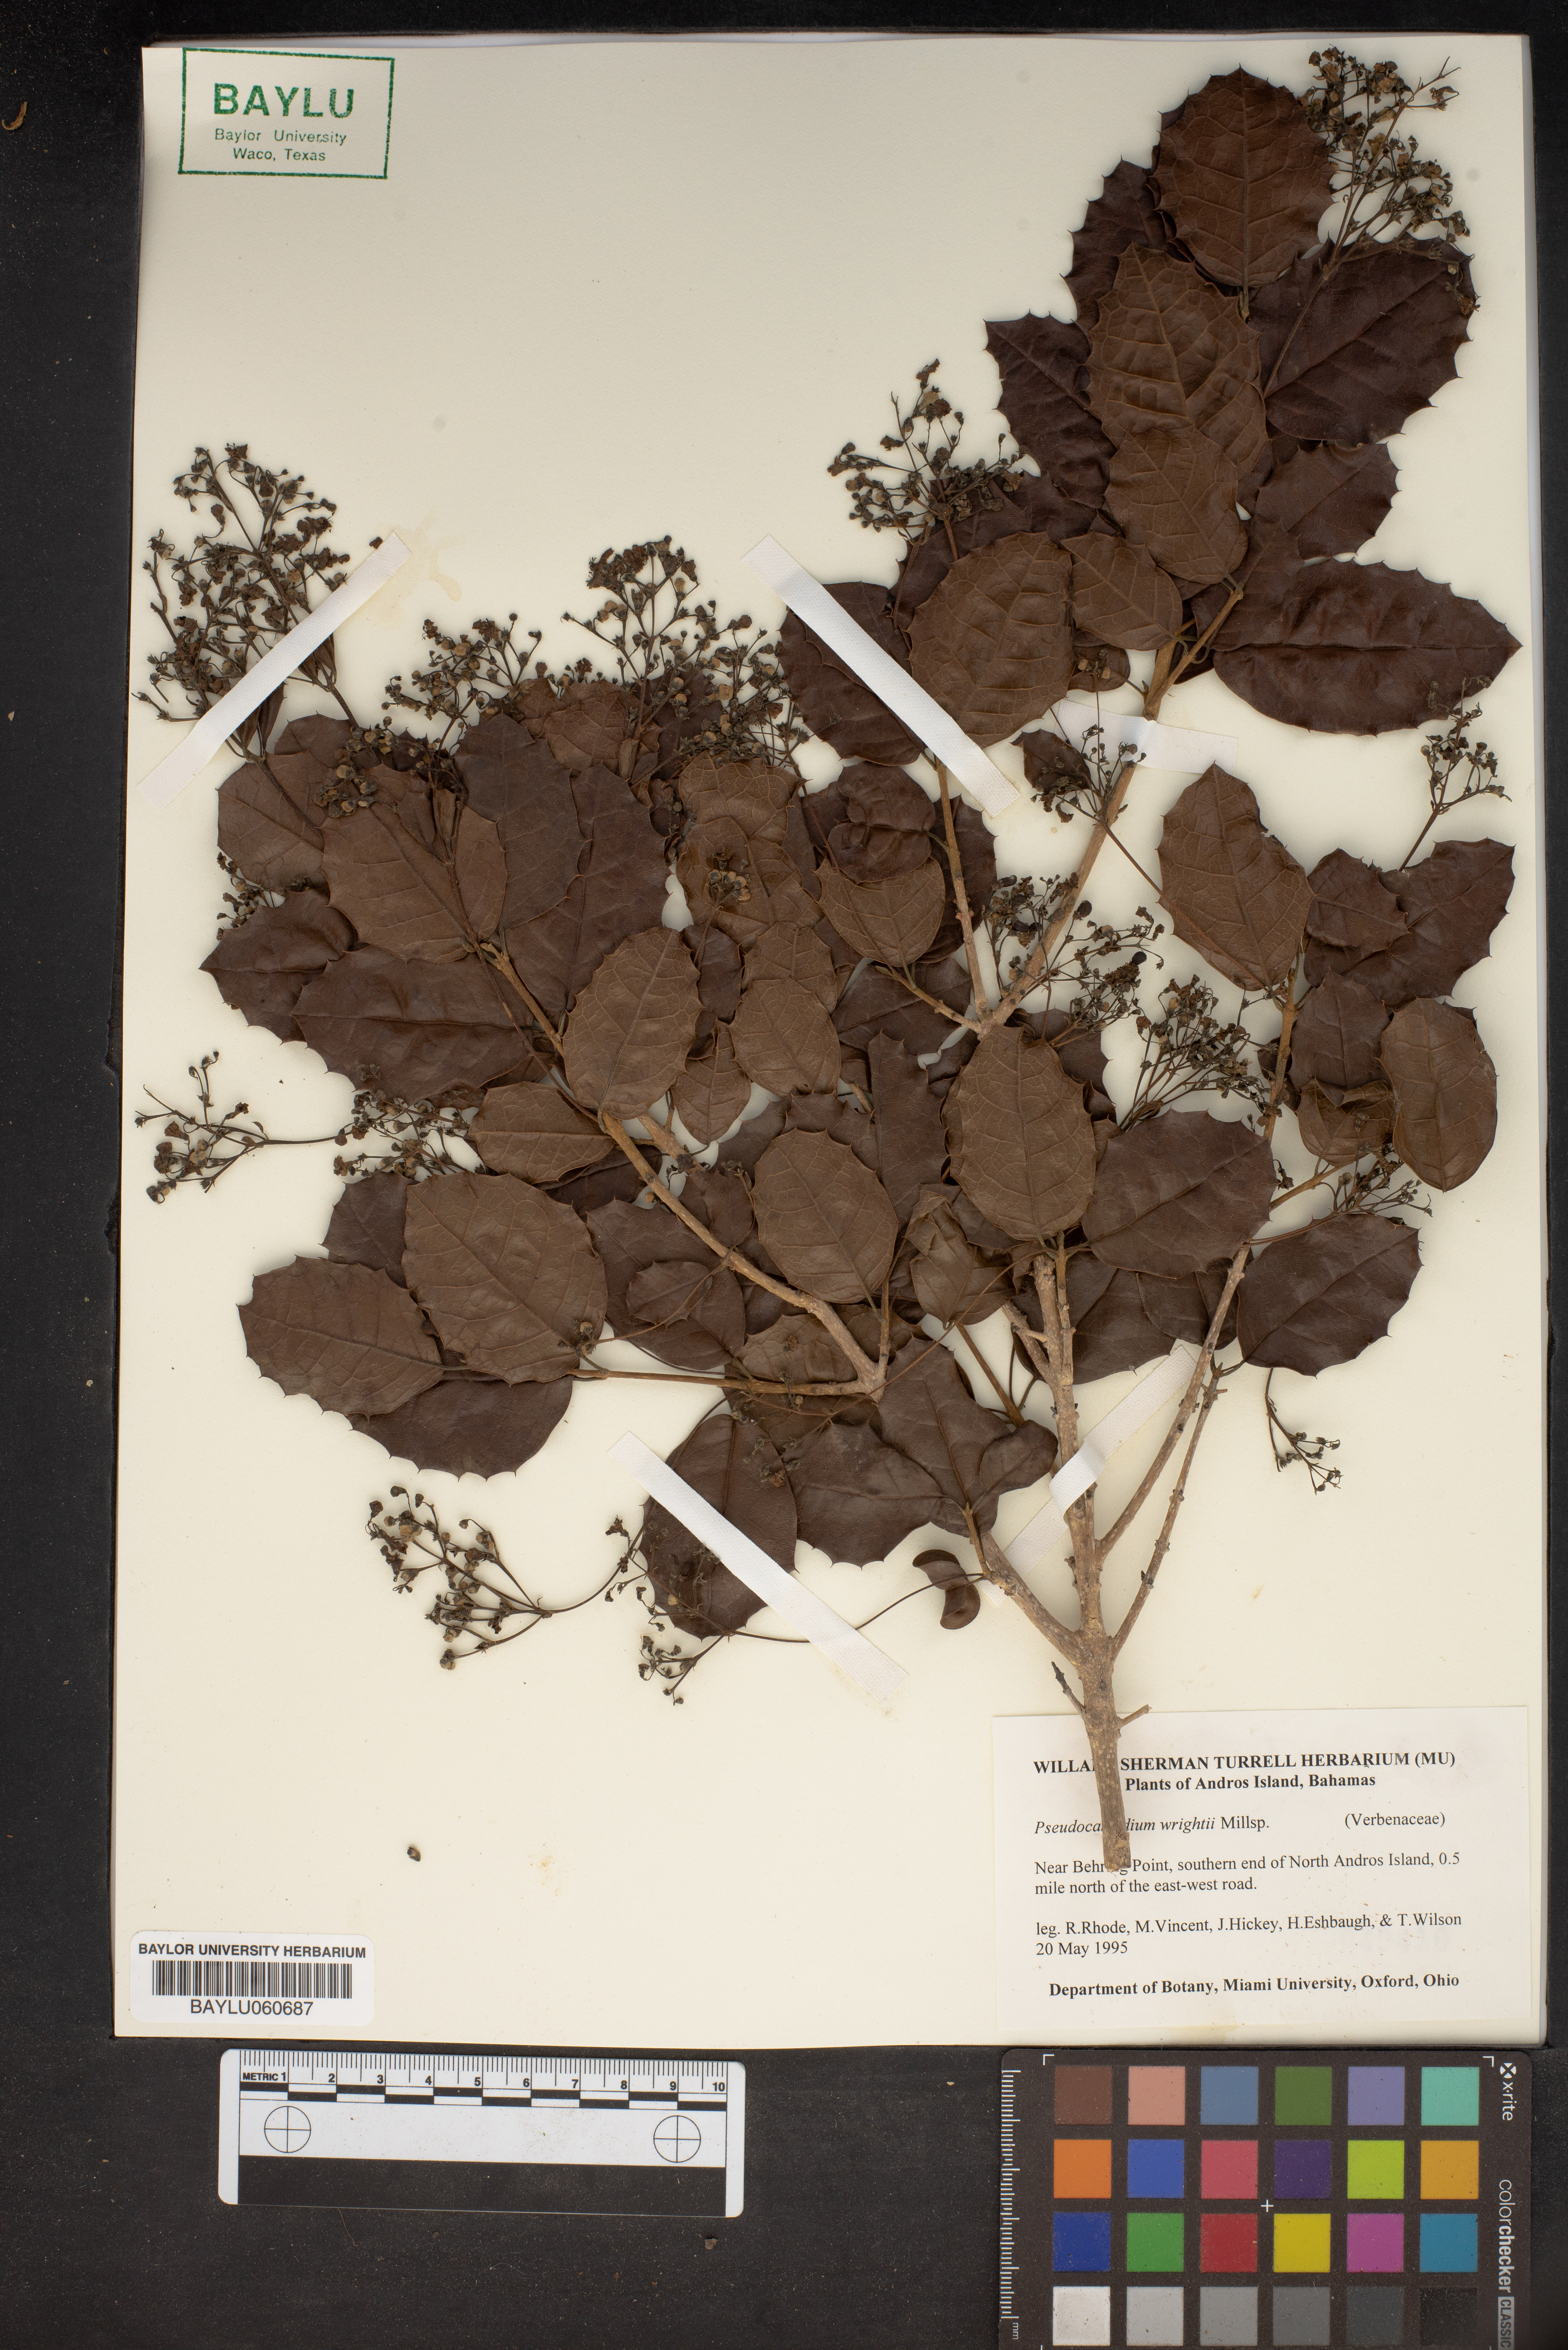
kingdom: Plantae
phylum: Tracheophyta
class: Magnoliopsida
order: Lamiales
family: Lamiaceae
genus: Pseudocarpidium
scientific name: Pseudocarpidium wrightii
